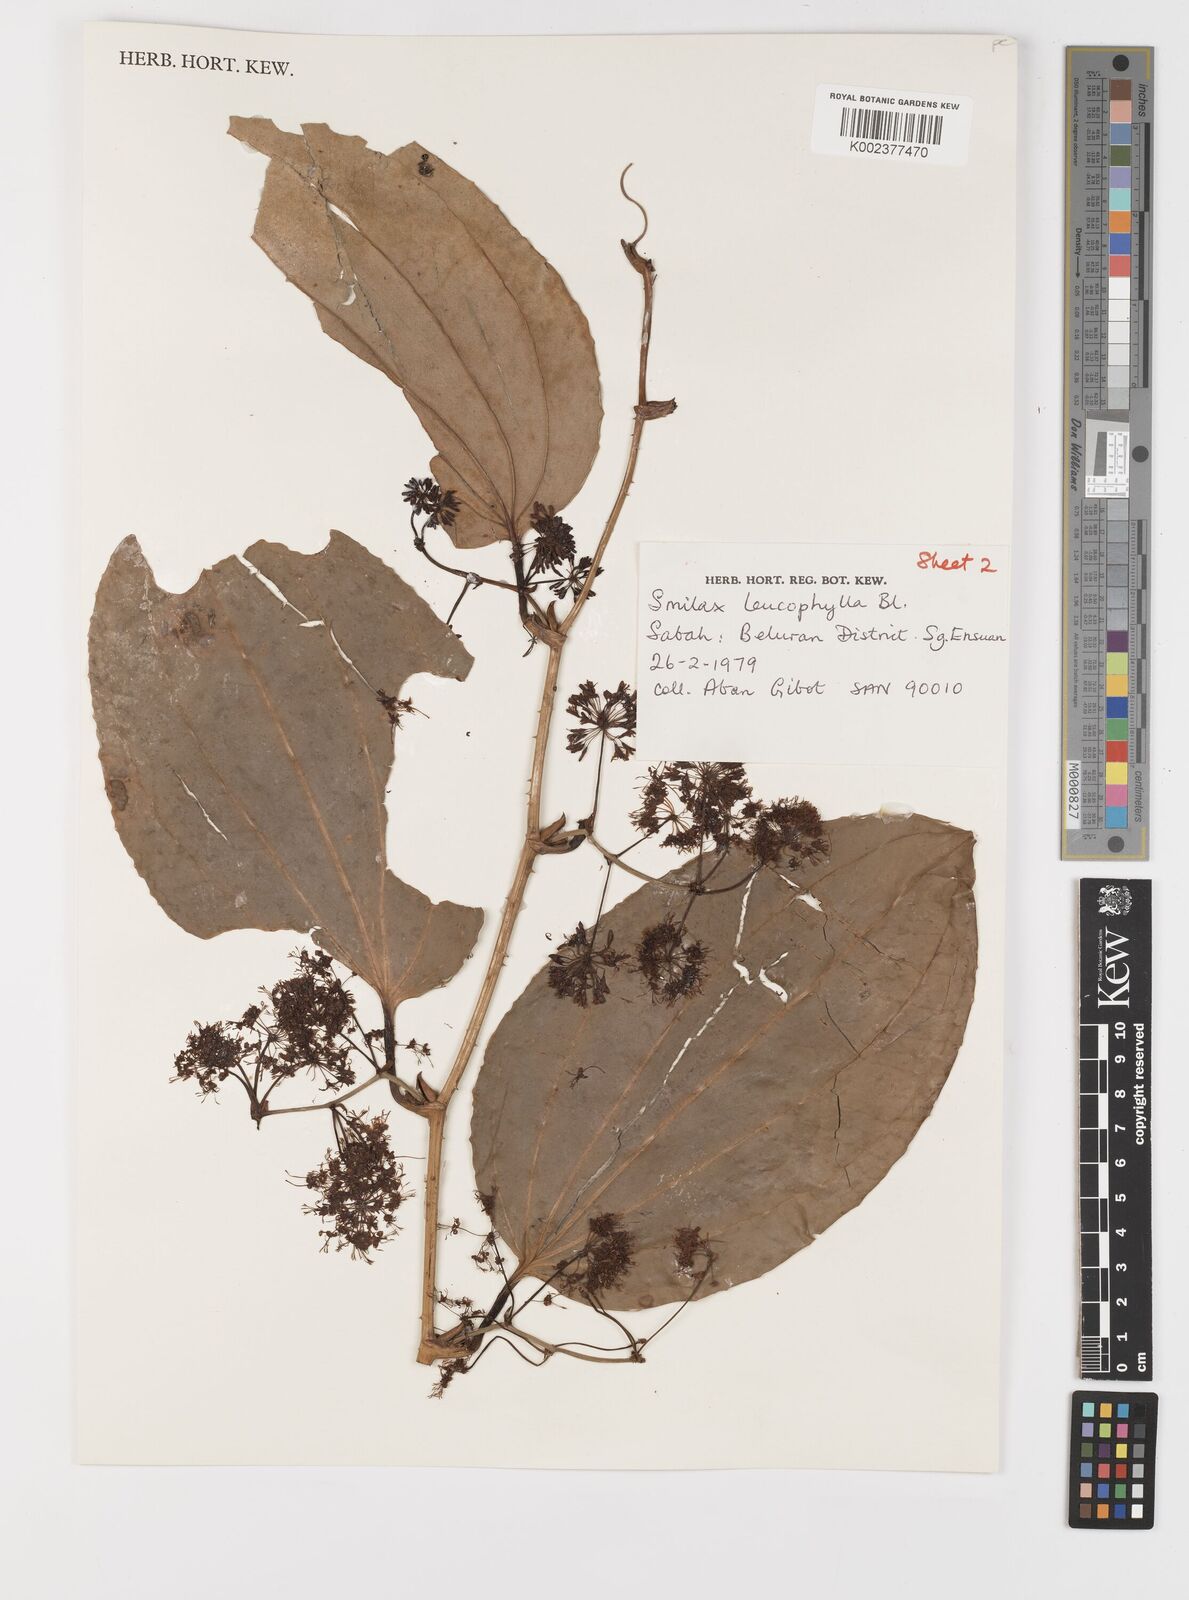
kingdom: Plantae
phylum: Tracheophyta
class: Liliopsida
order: Liliales
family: Smilacaceae
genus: Smilax
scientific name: Smilax borneensis
